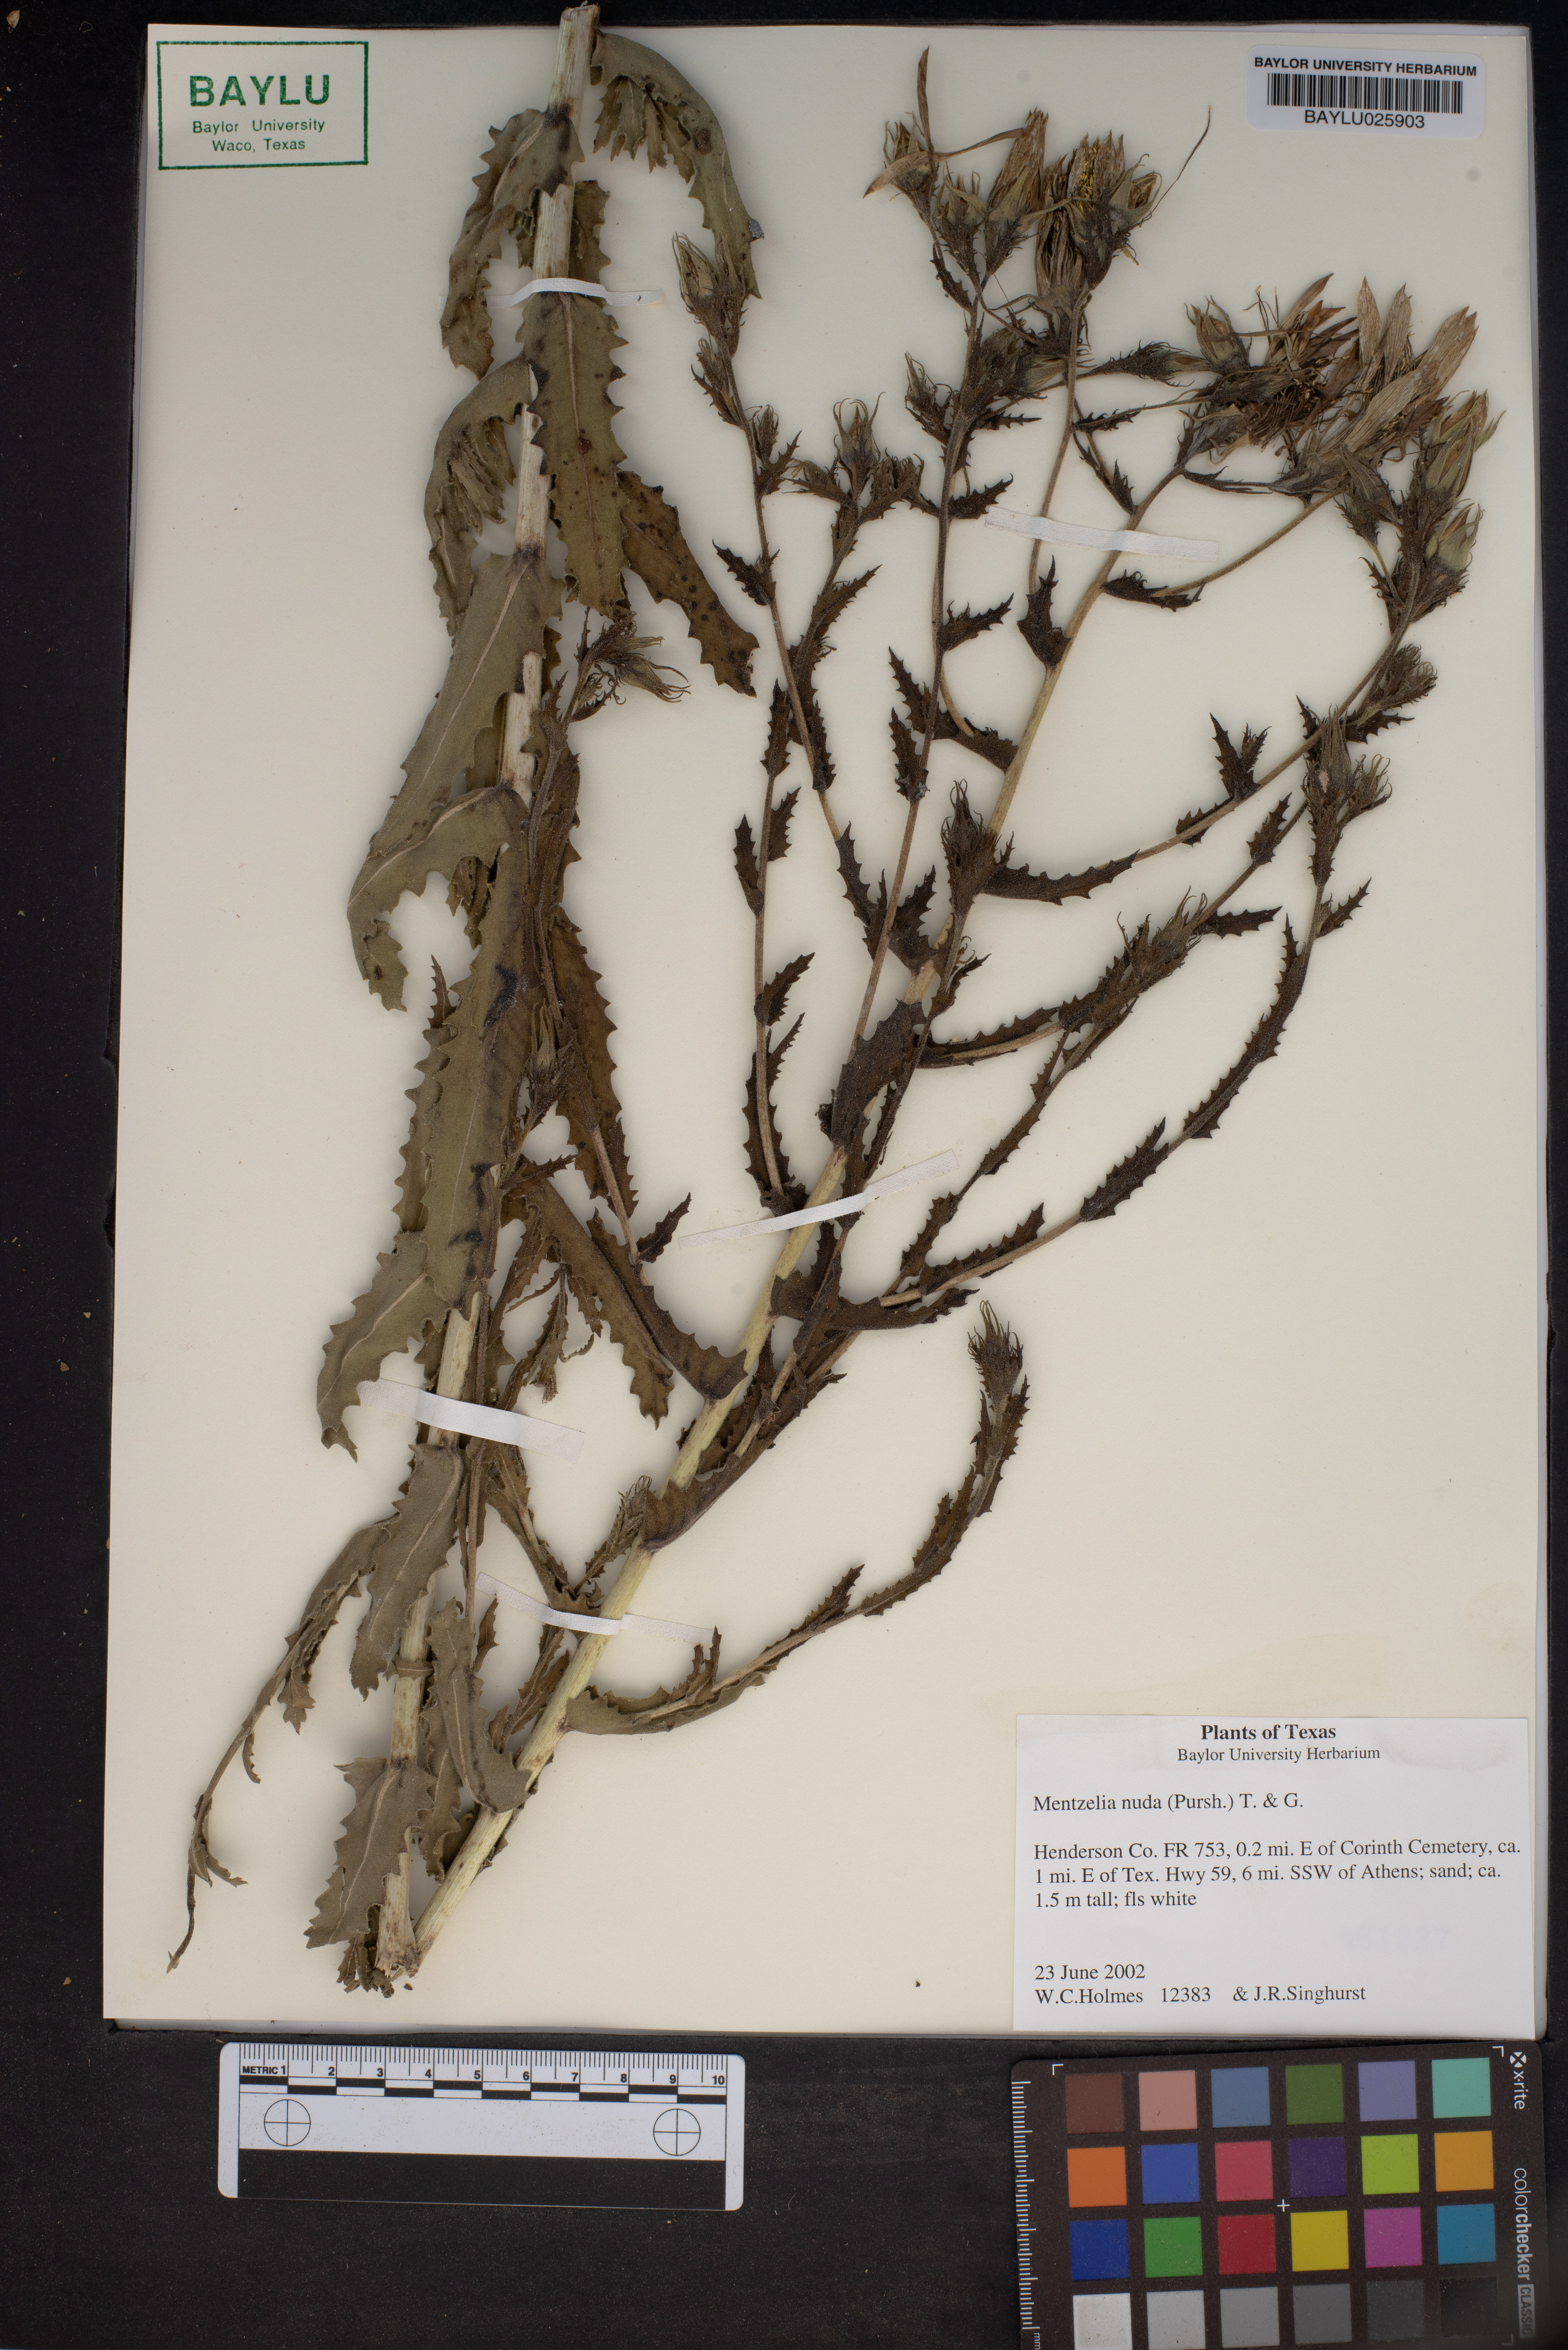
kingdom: Plantae
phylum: Tracheophyta
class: Magnoliopsida
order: Cornales
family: Loasaceae
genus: Mentzelia
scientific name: Mentzelia nuda
